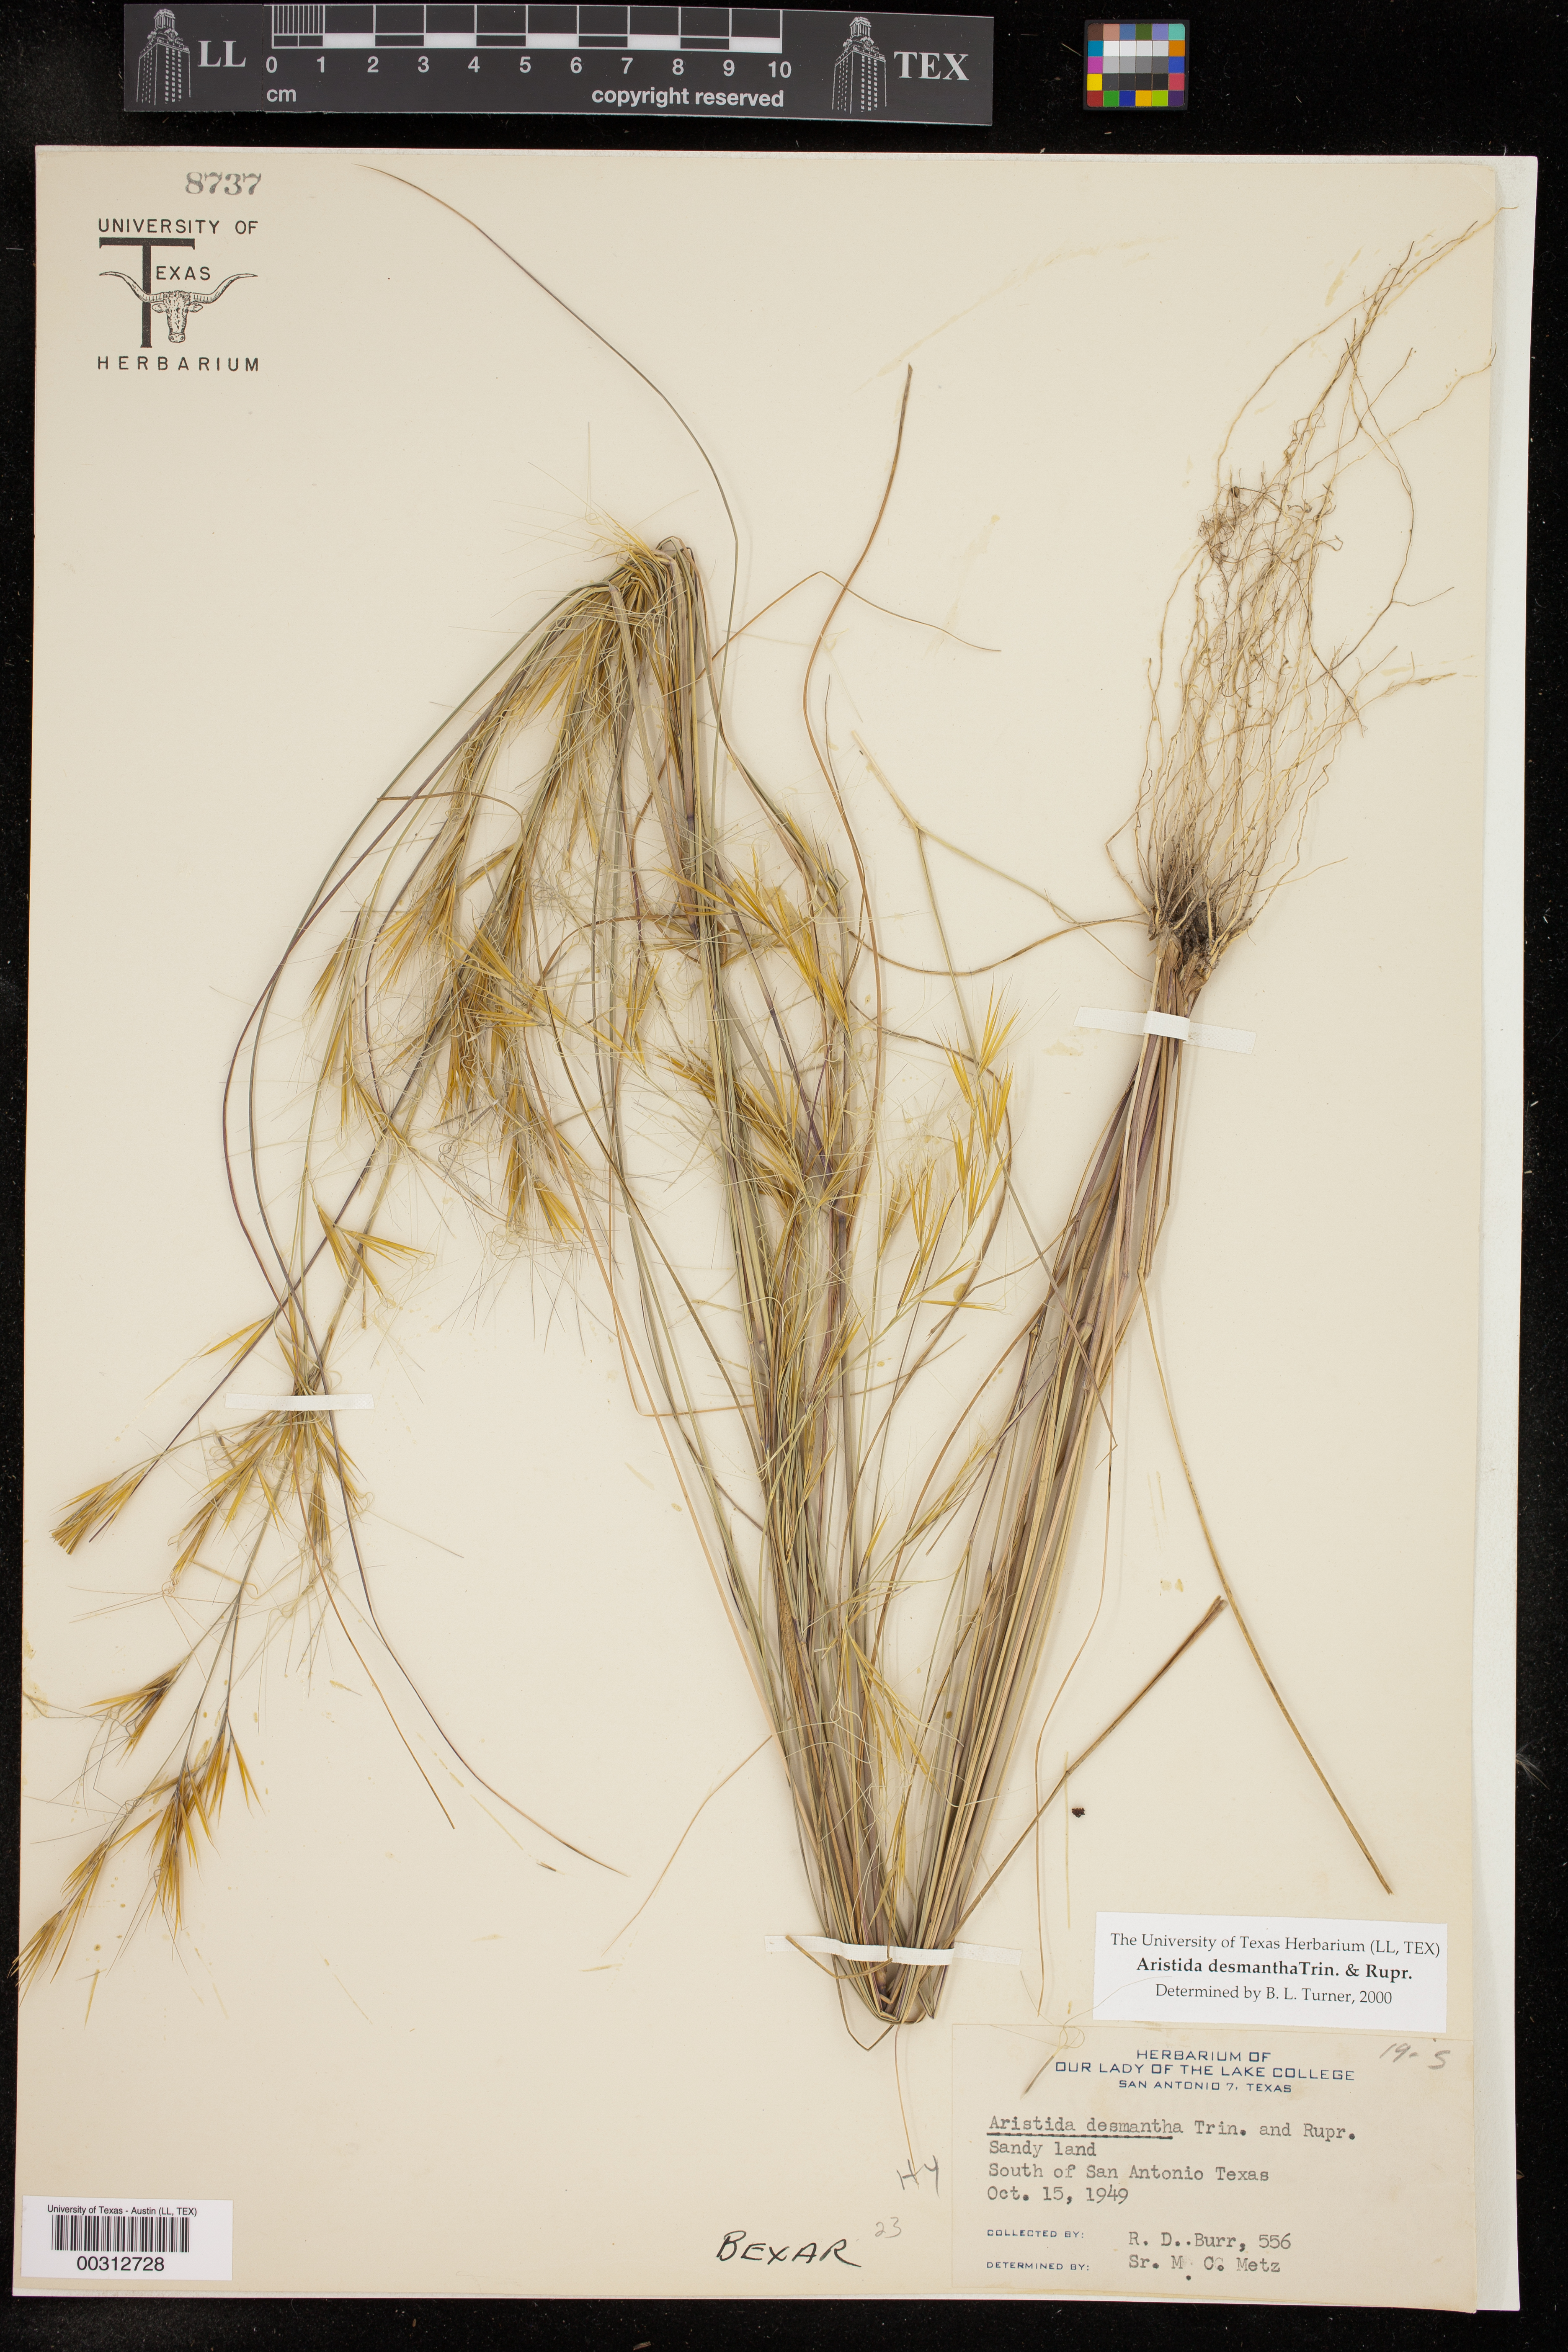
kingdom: Plantae
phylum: Tracheophyta
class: Liliopsida
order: Poales
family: Poaceae
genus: Aristida
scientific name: Aristida desmantha
